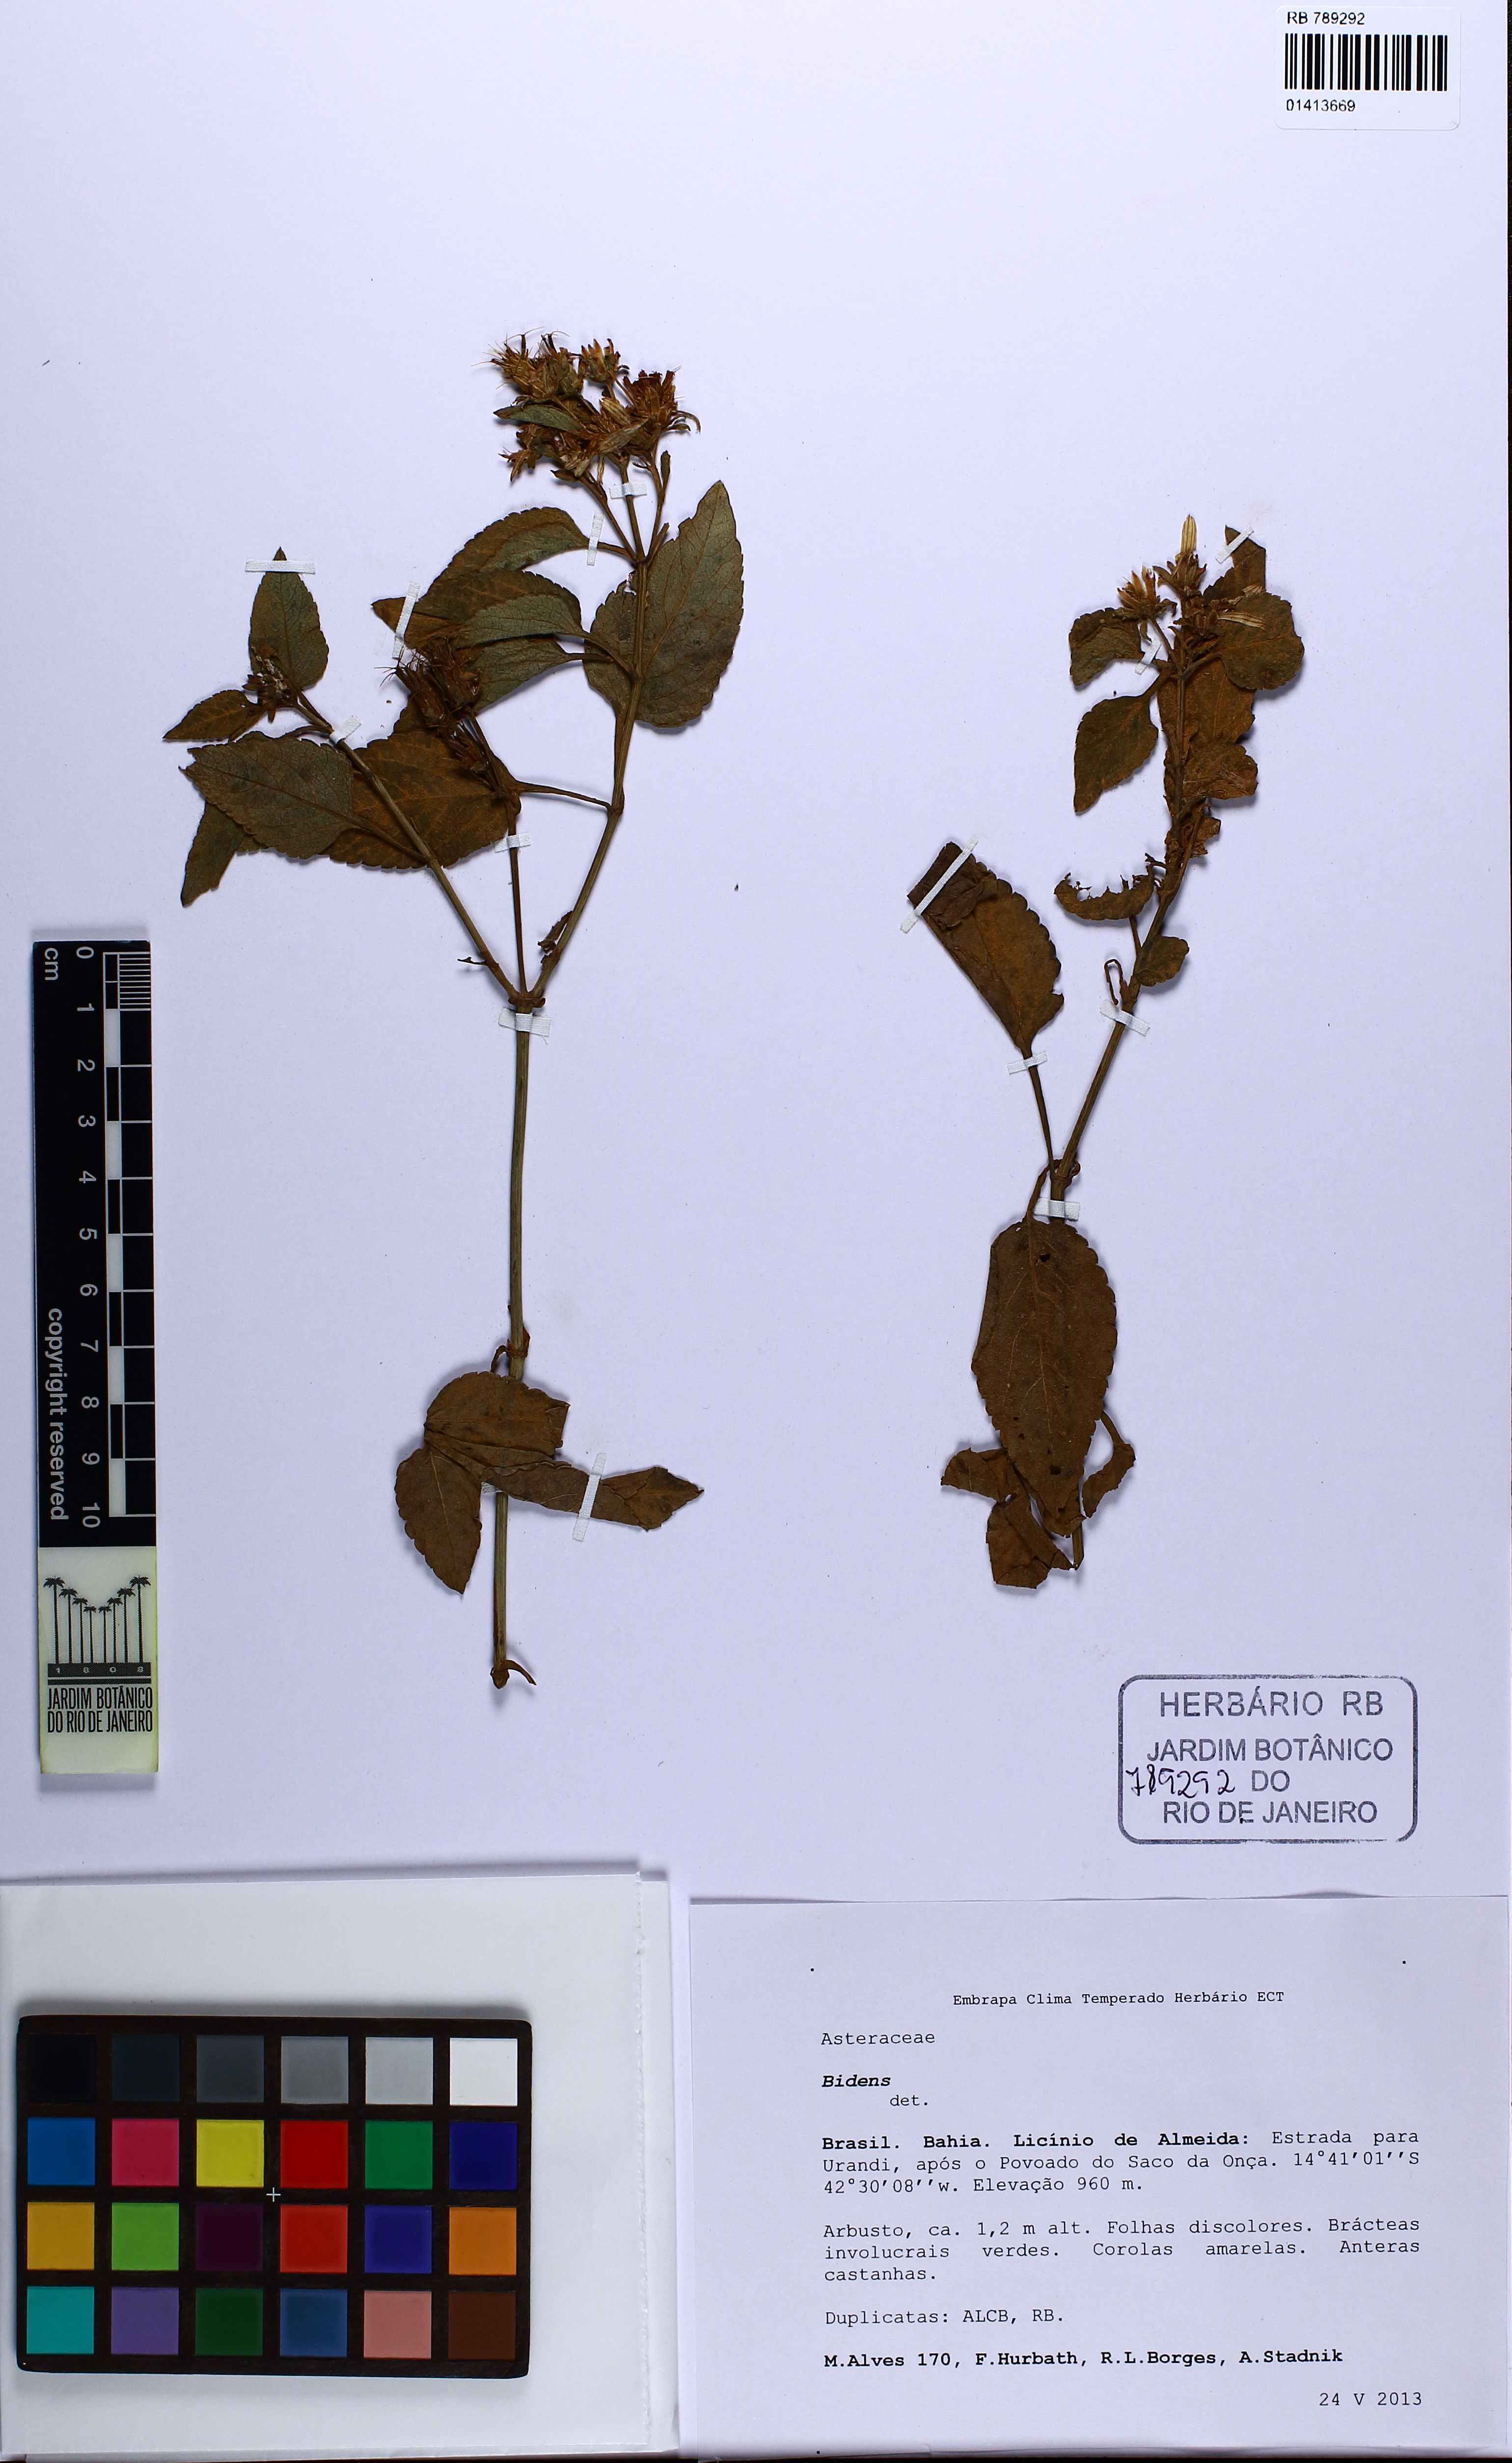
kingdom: Plantae
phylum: Tracheophyta
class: Magnoliopsida
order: Asterales
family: Asteraceae
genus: Bidens
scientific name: Bidens
